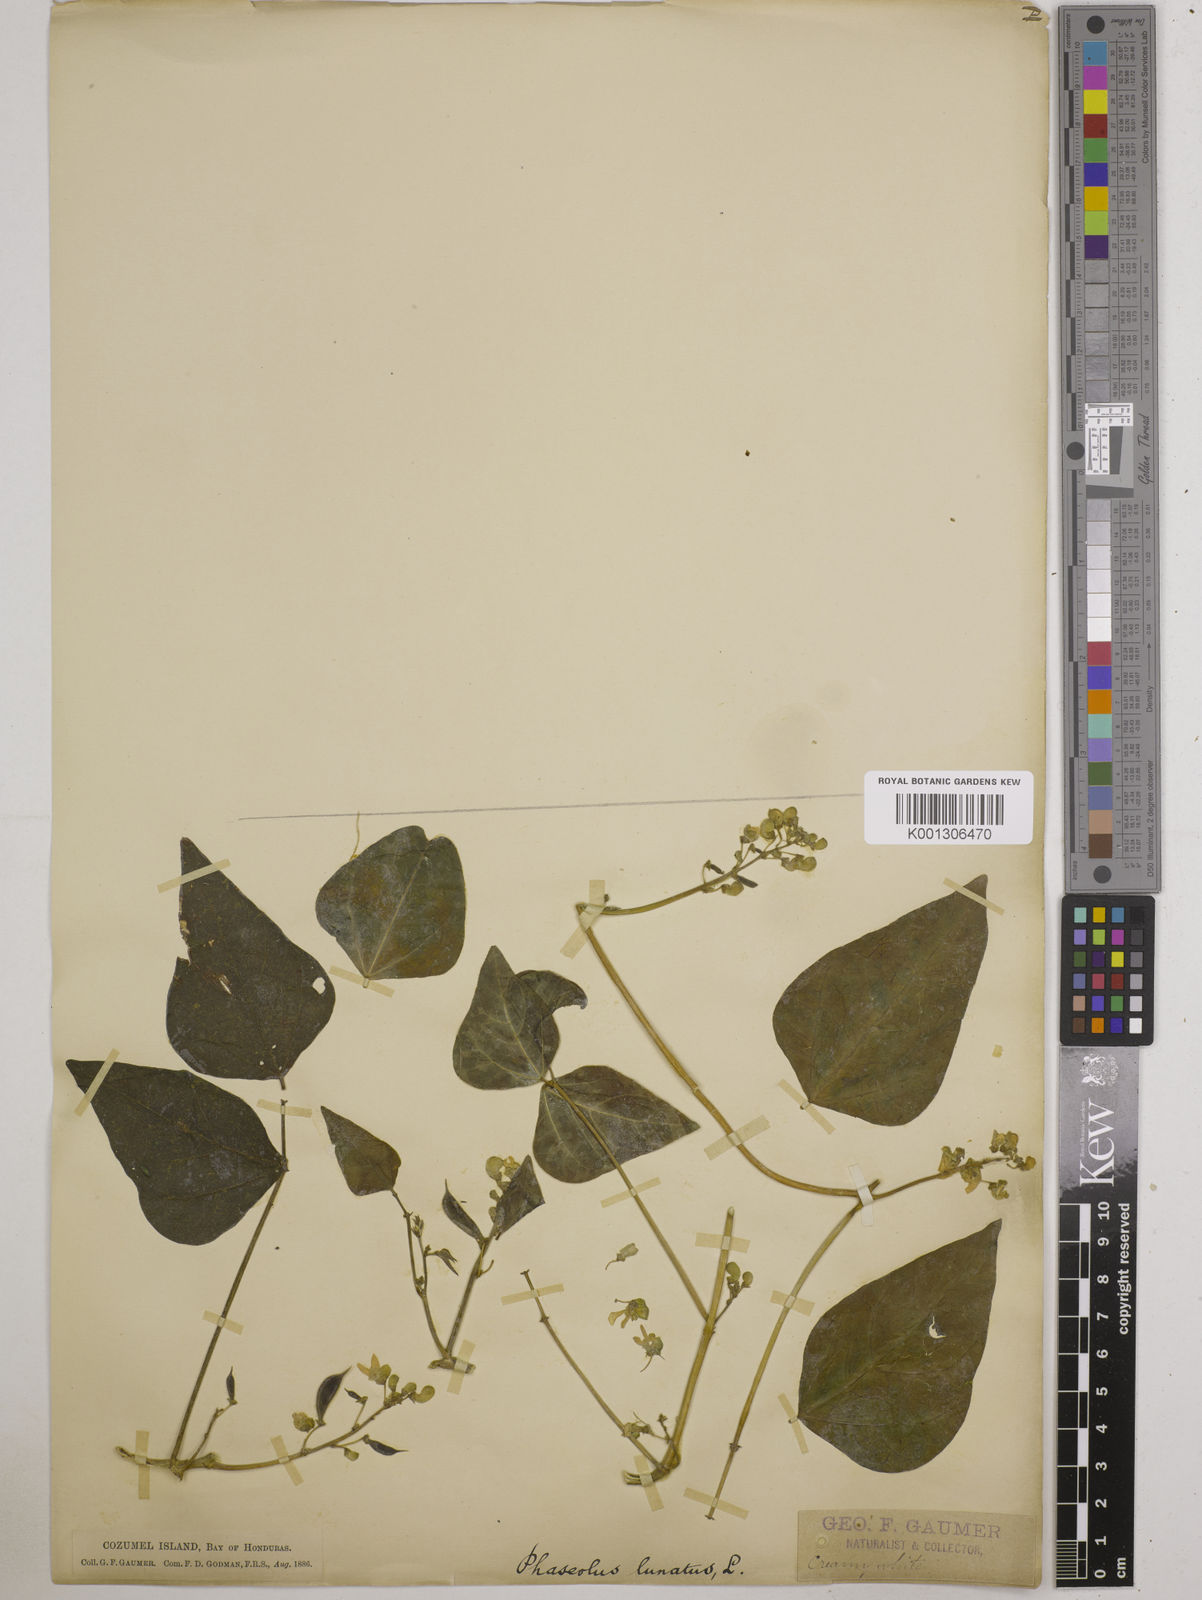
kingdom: Plantae
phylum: Tracheophyta
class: Magnoliopsida
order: Fabales
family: Fabaceae
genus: Phaseolus
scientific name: Phaseolus lunatus
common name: Sieva bean
